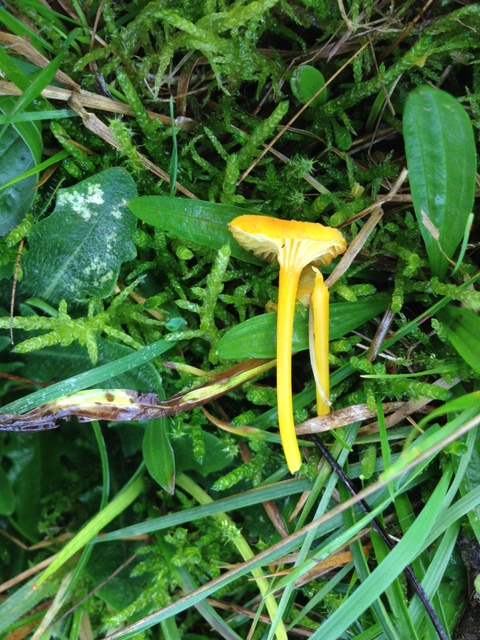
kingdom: Fungi
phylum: Basidiomycota
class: Agaricomycetes
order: Agaricales
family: Hygrophoraceae
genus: Hygrocybe
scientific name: Hygrocybe cantharellus
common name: kantarel-vokshat
